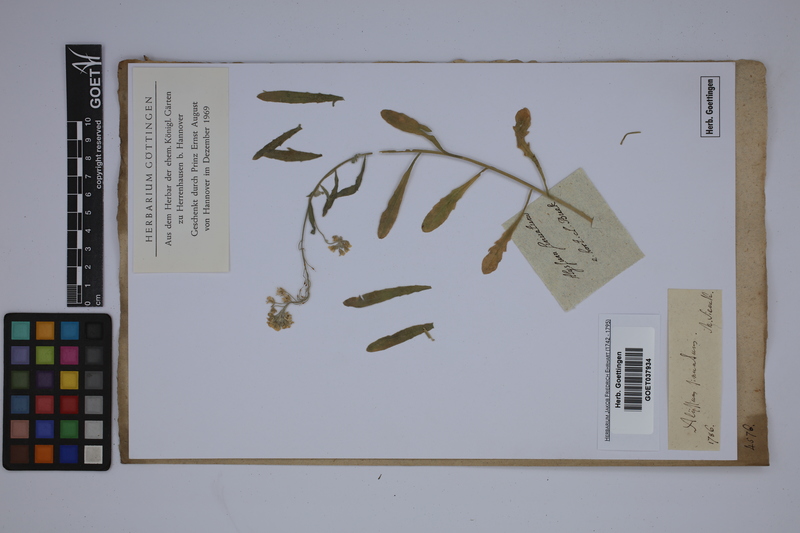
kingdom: Plantae
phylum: Tracheophyta
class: Magnoliopsida
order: Brassicales
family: Brassicaceae
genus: Aurinia
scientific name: Aurinia sinuata
